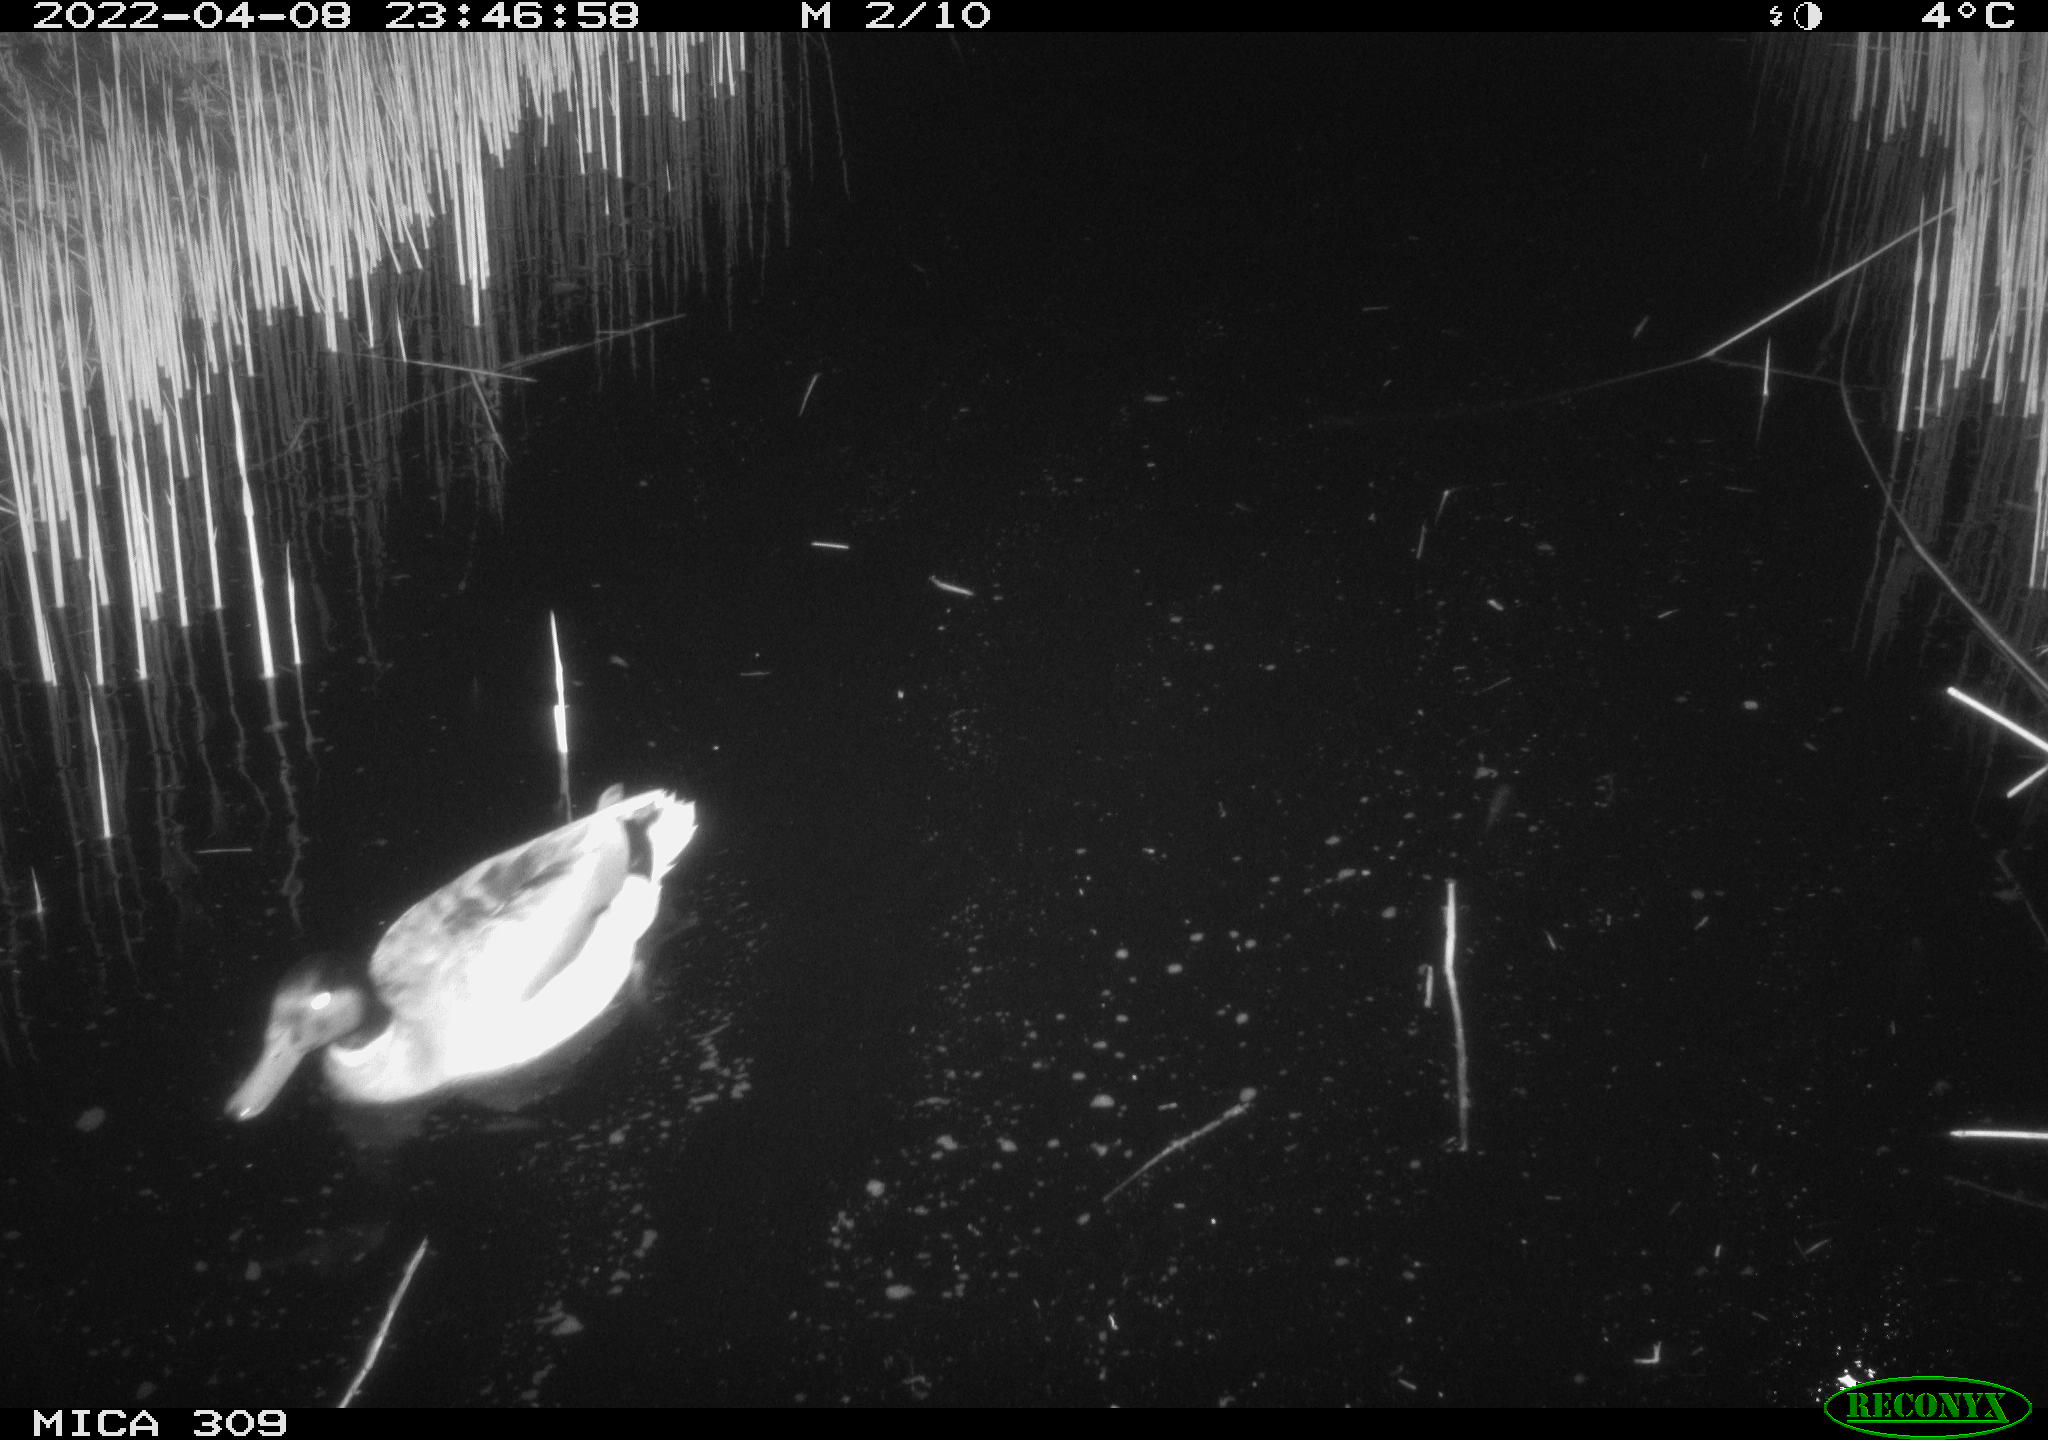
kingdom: Animalia
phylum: Chordata
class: Aves
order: Anseriformes
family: Anatidae
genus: Anas
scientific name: Anas platyrhynchos
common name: Mallard
